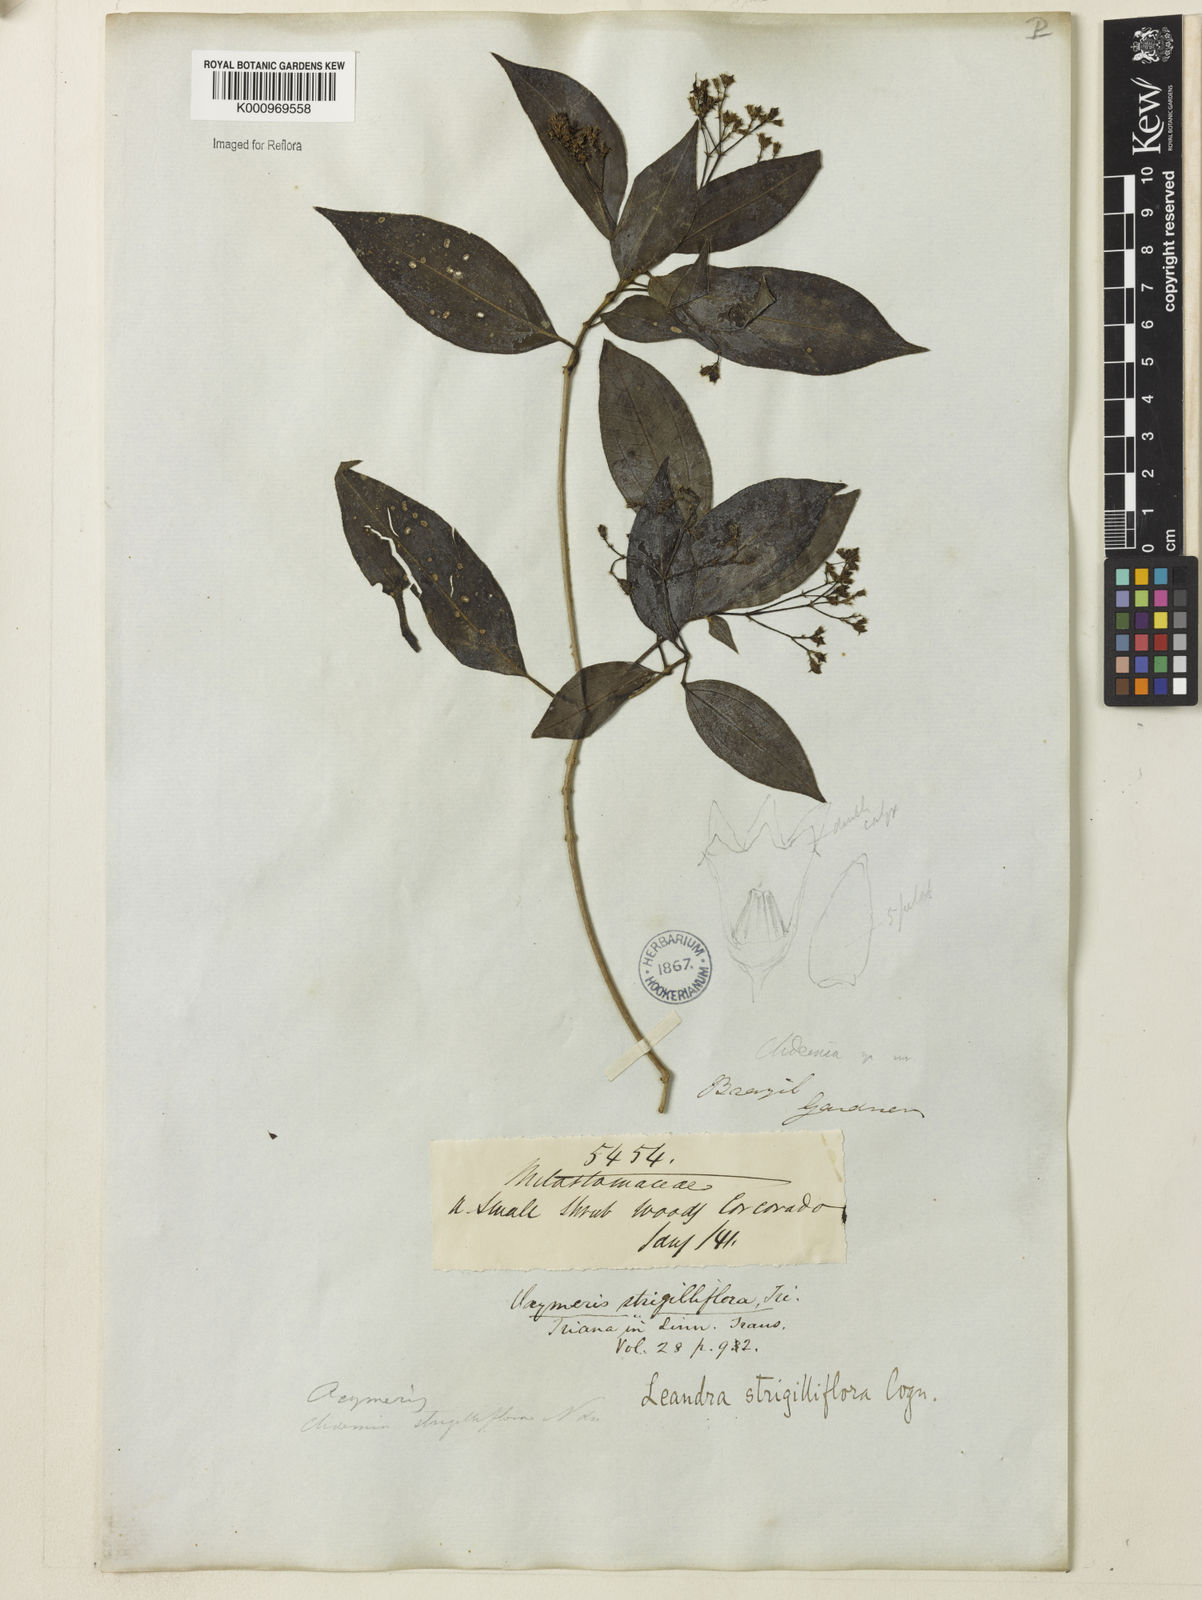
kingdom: Plantae
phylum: Tracheophyta
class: Magnoliopsida
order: Myrtales
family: Melastomataceae
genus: Miconia
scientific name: Miconia strigilliflora
